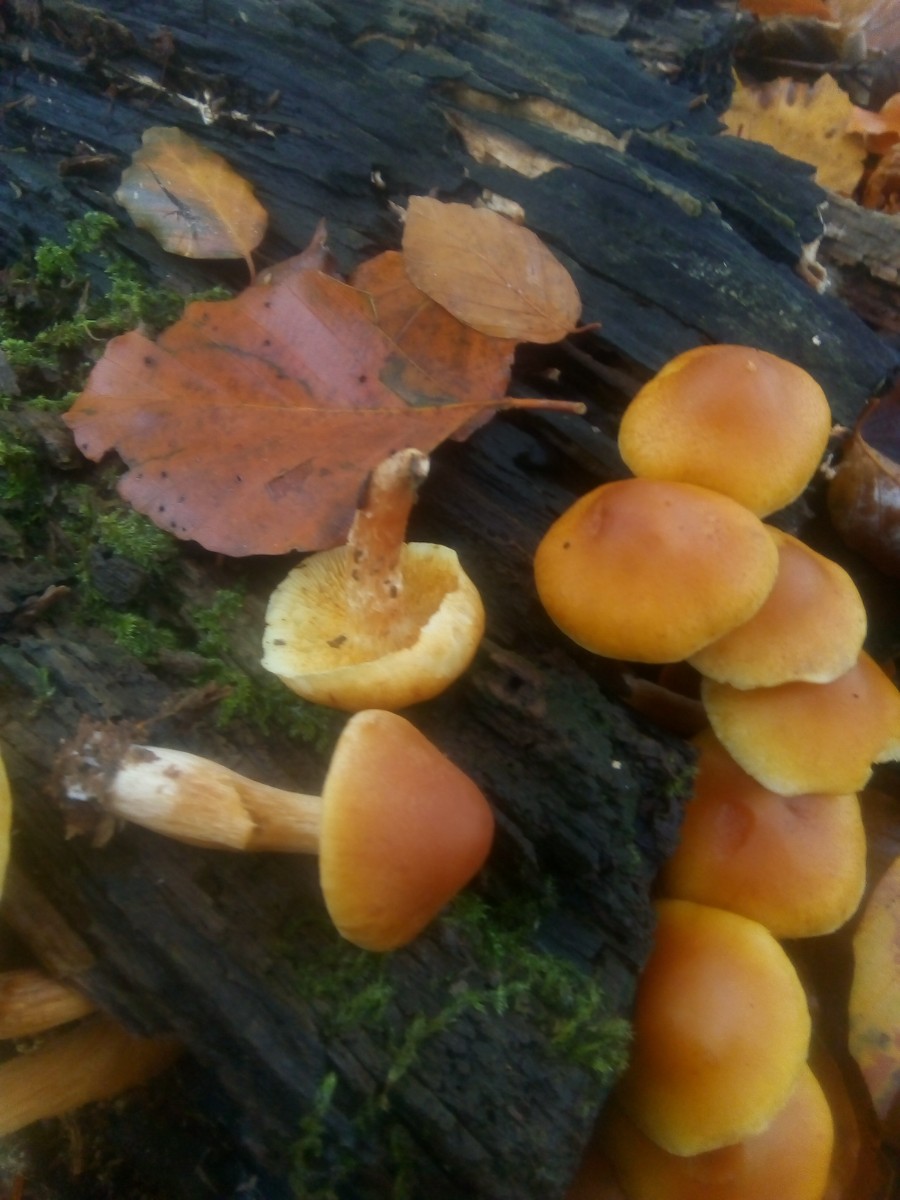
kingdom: Fungi
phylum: Basidiomycota
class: Agaricomycetes
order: Agaricales
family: Hymenogastraceae
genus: Gymnopilus
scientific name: Gymnopilus penetrans
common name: plettet flammehat
